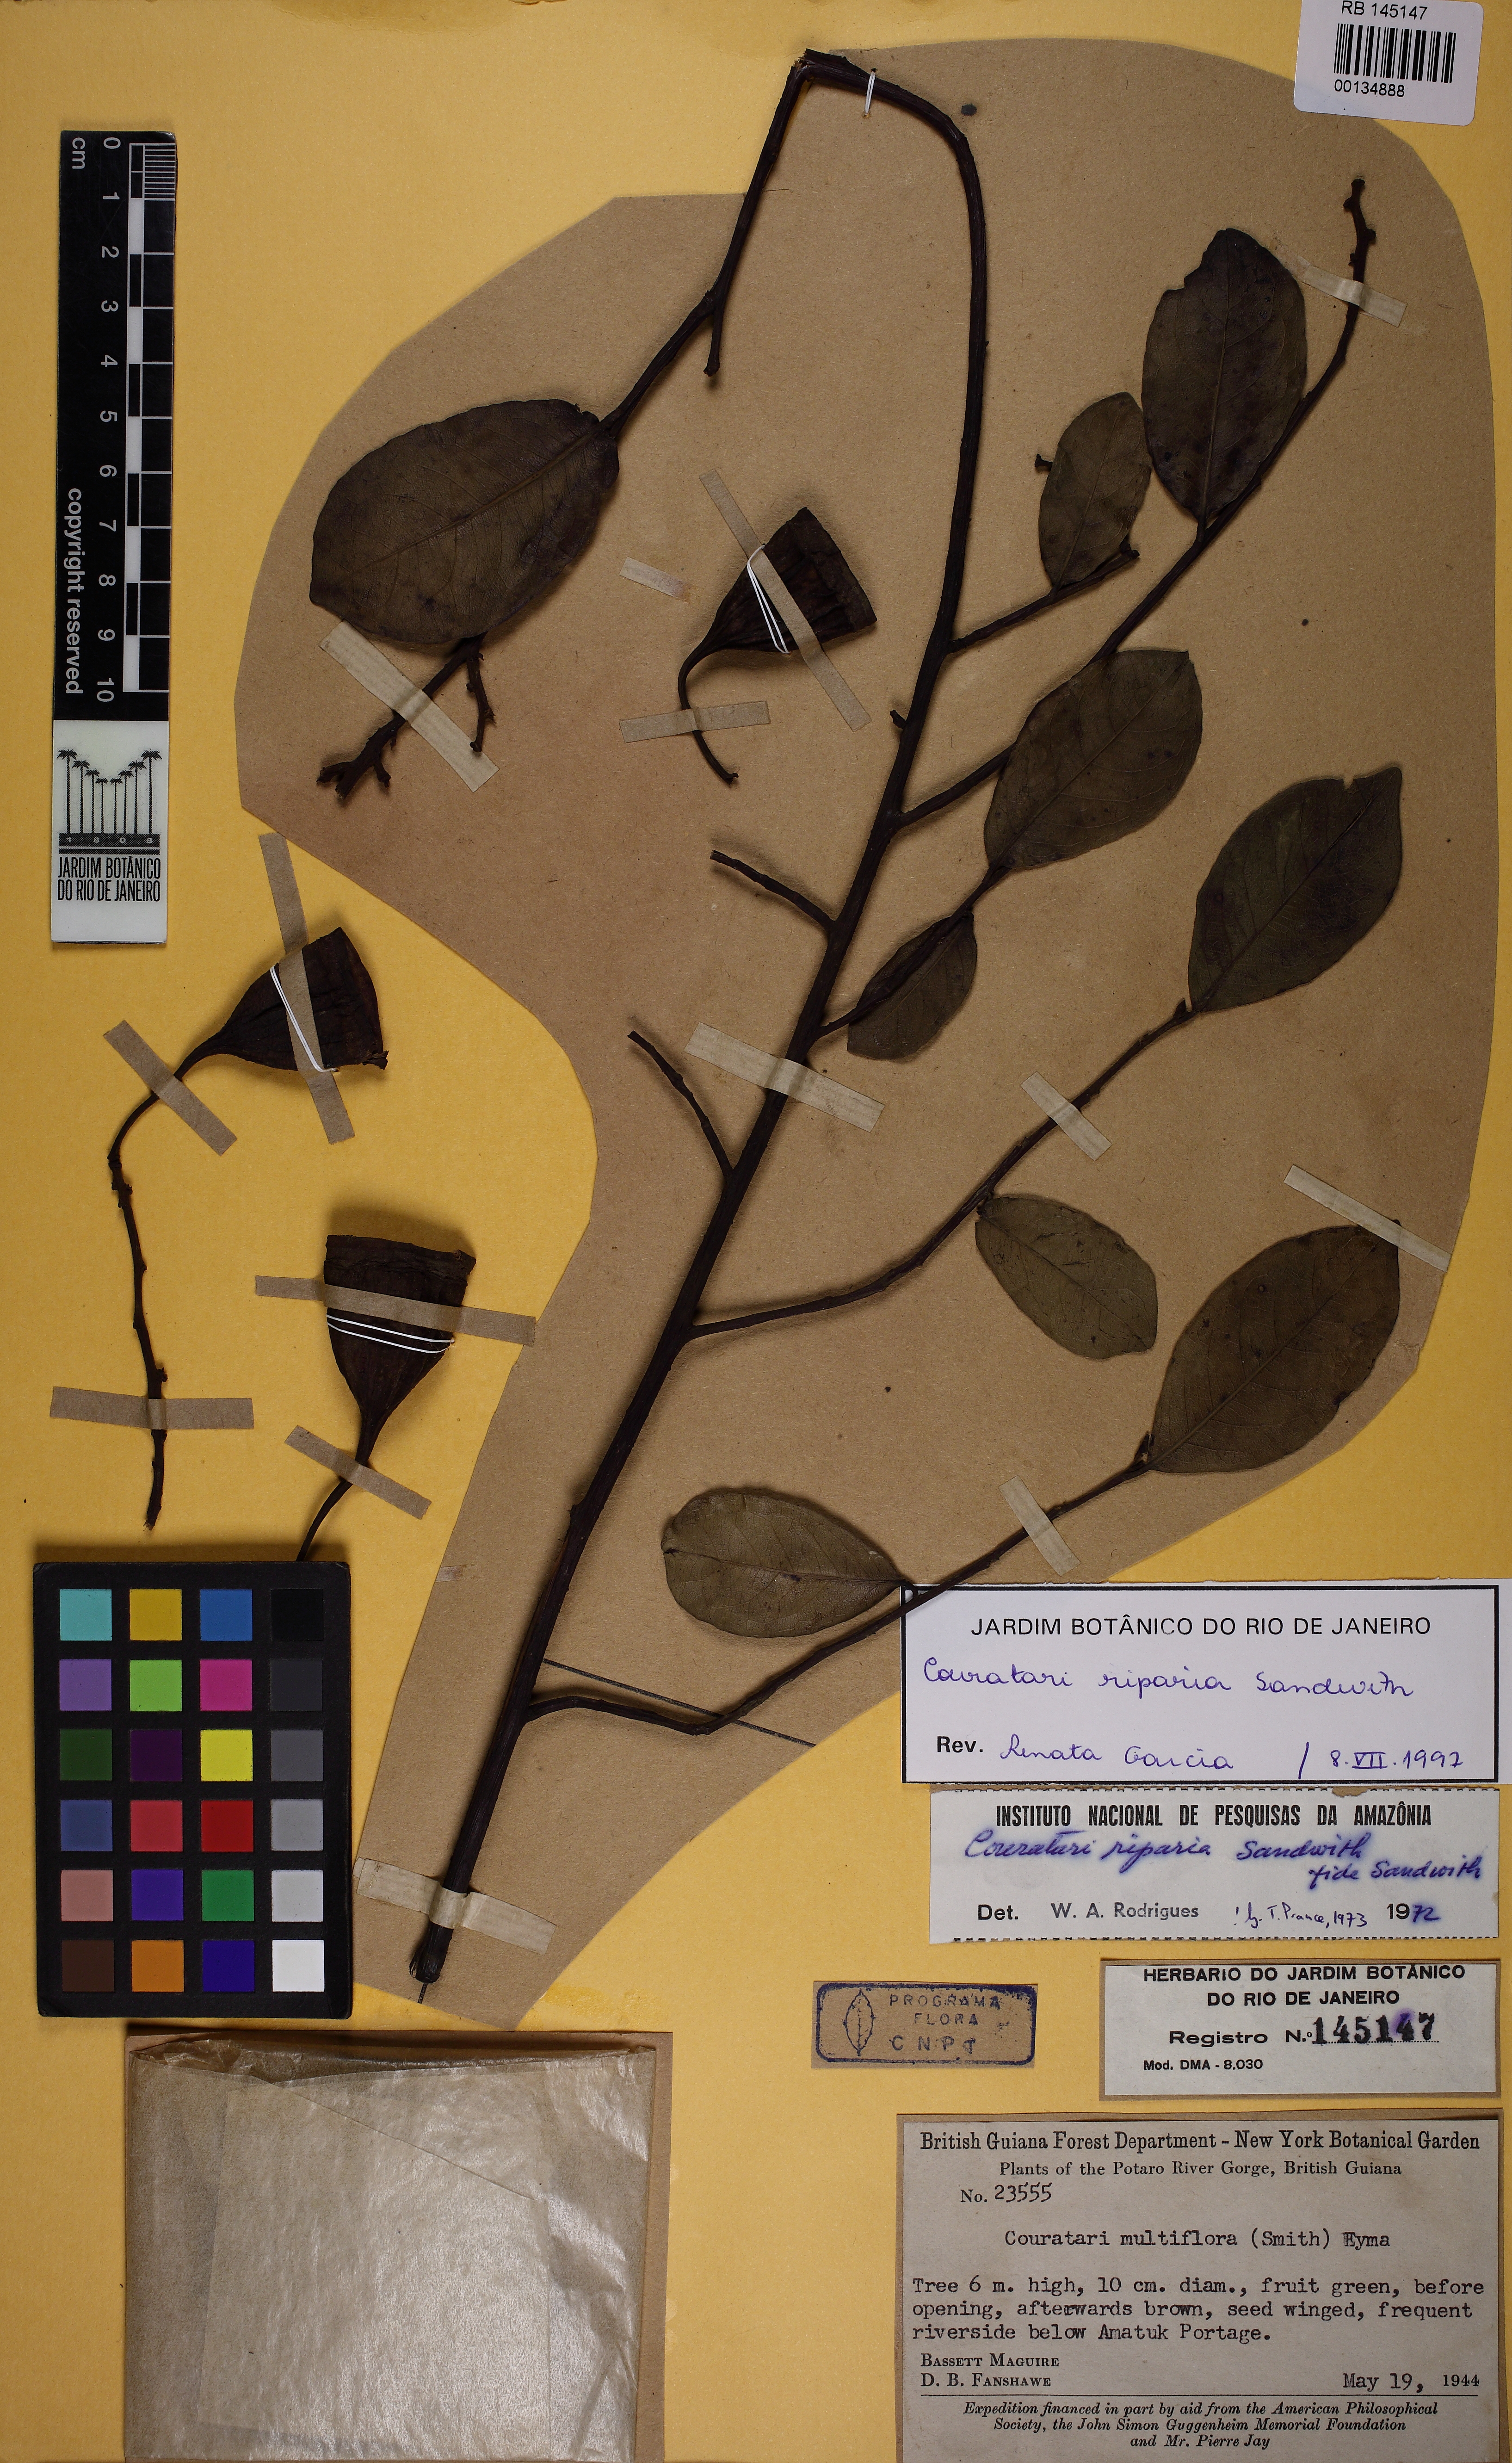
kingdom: Plantae
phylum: Tracheophyta
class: Magnoliopsida
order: Ericales
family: Lecythidaceae
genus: Couratari
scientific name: Couratari riparia
